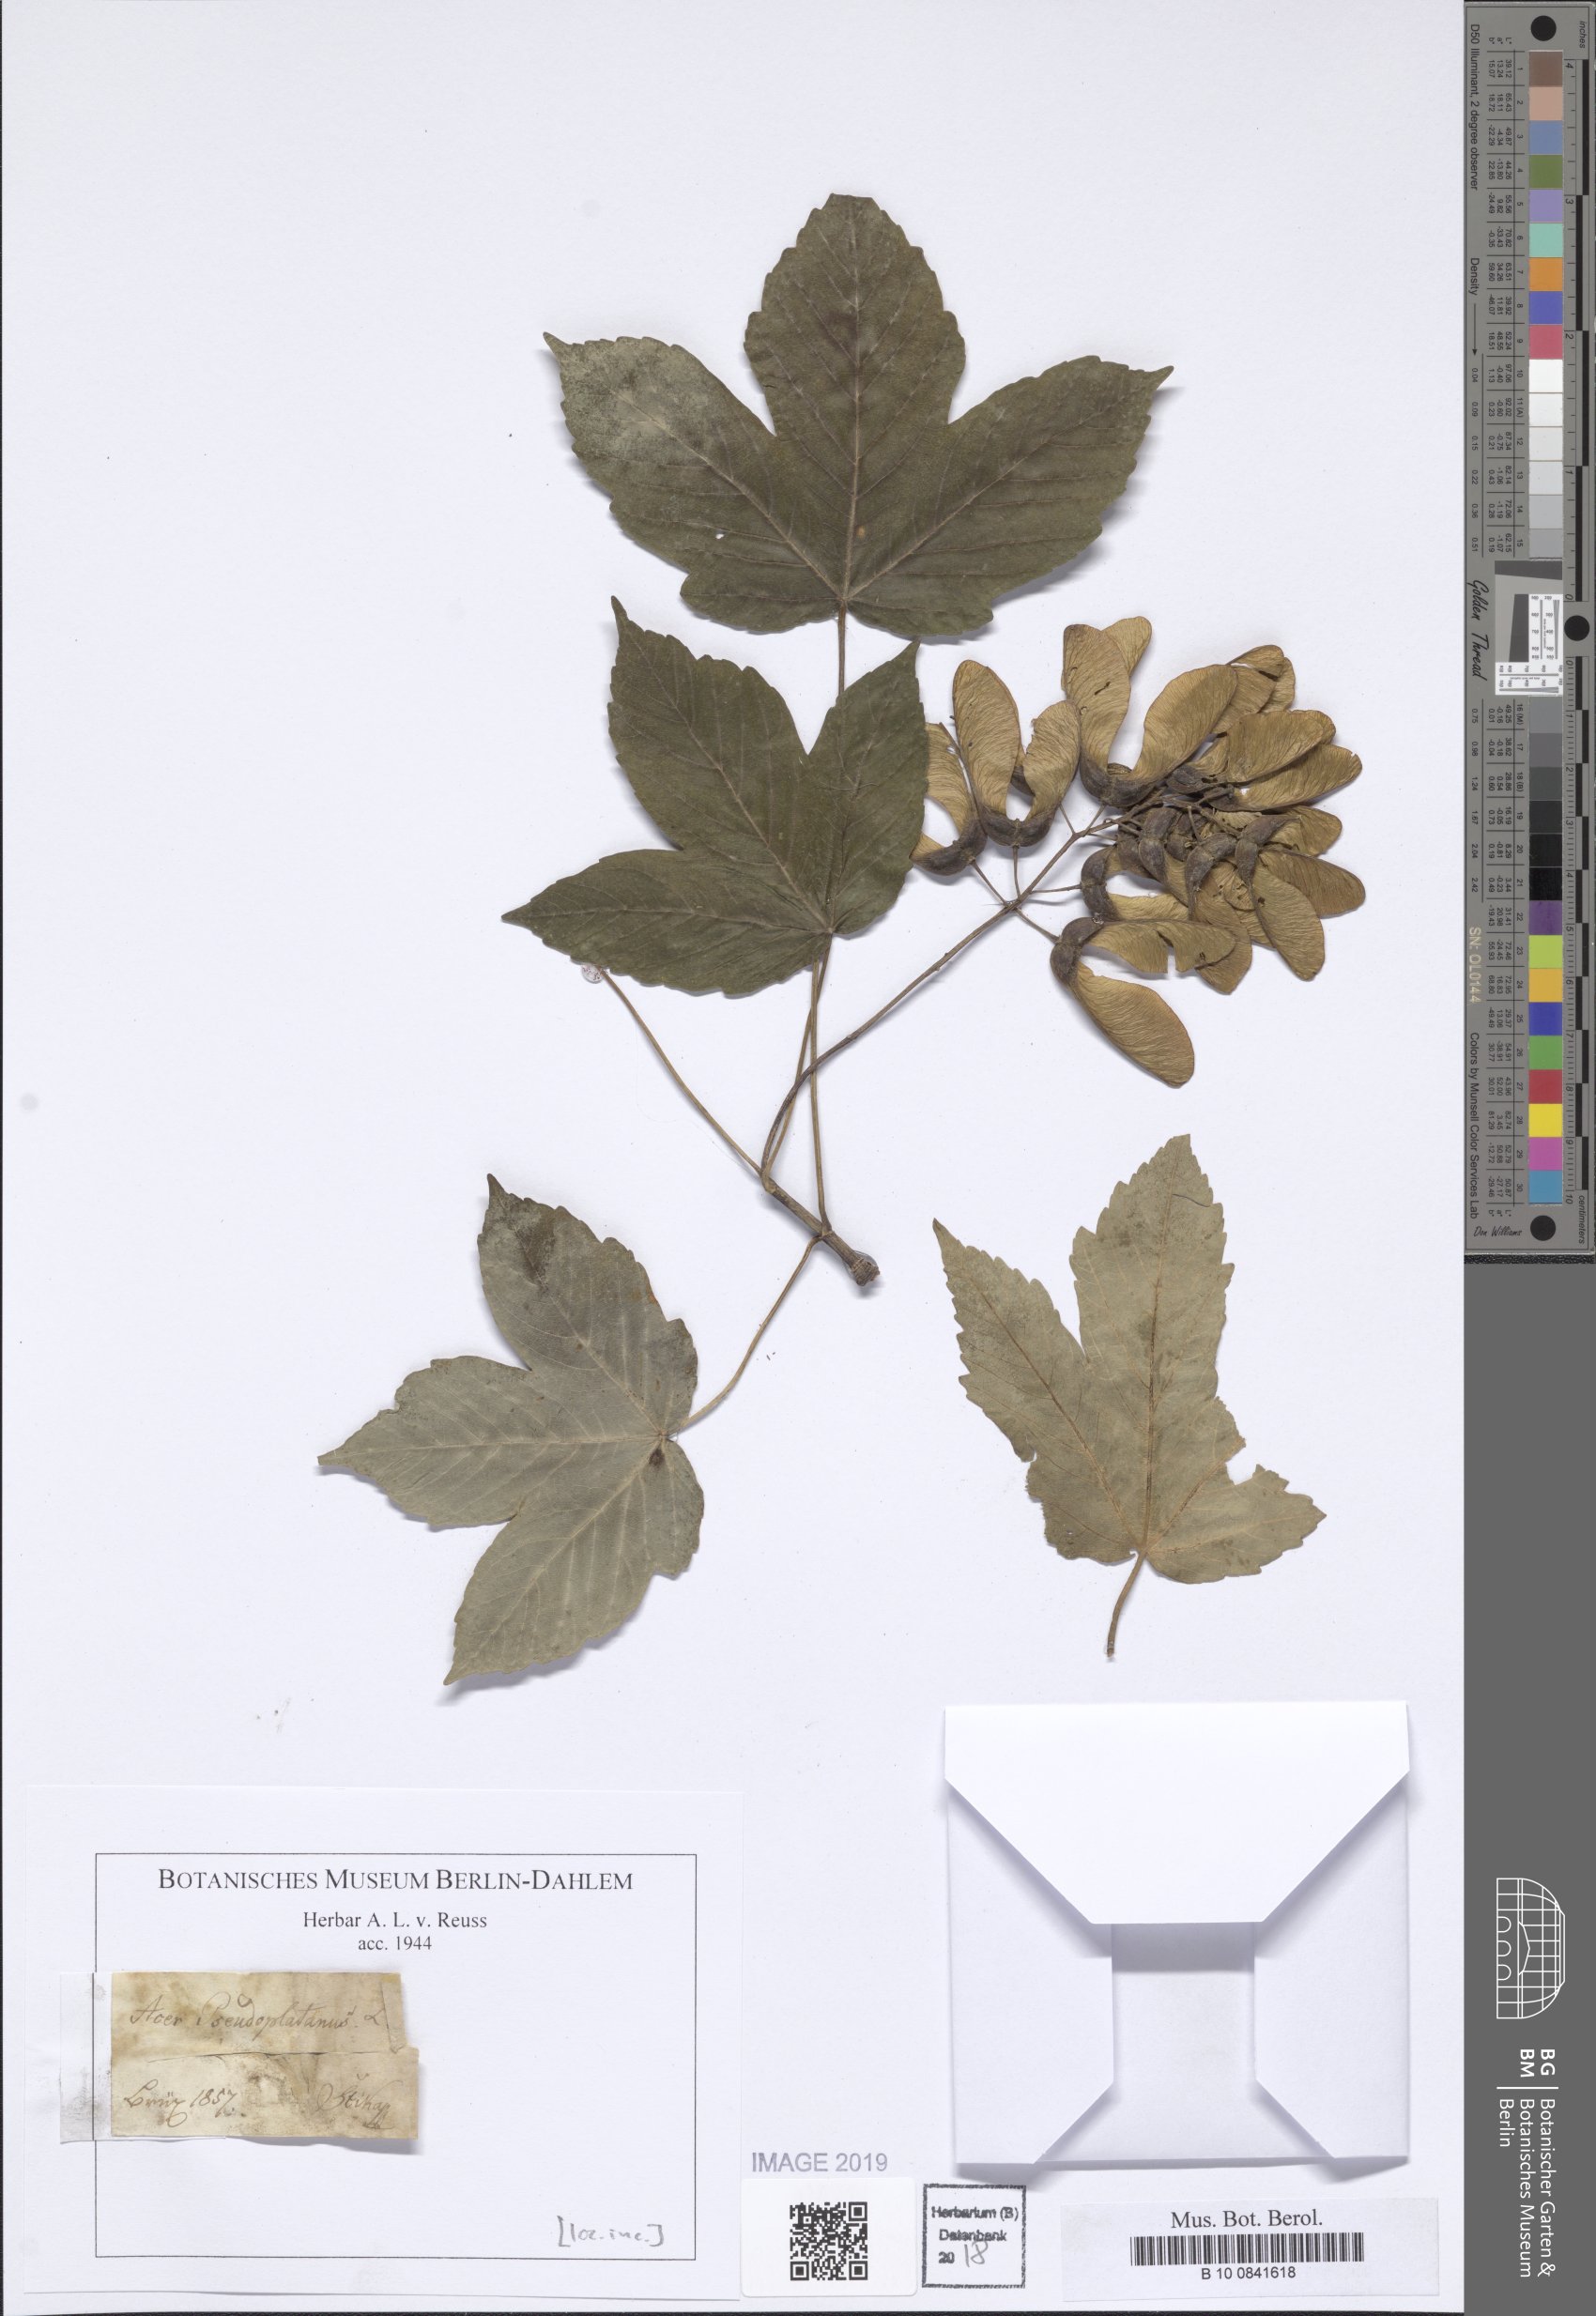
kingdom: Plantae
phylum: Tracheophyta
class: Magnoliopsida
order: Sapindales
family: Sapindaceae
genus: Acer
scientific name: Acer pseudoplatanus
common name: Sycamore
